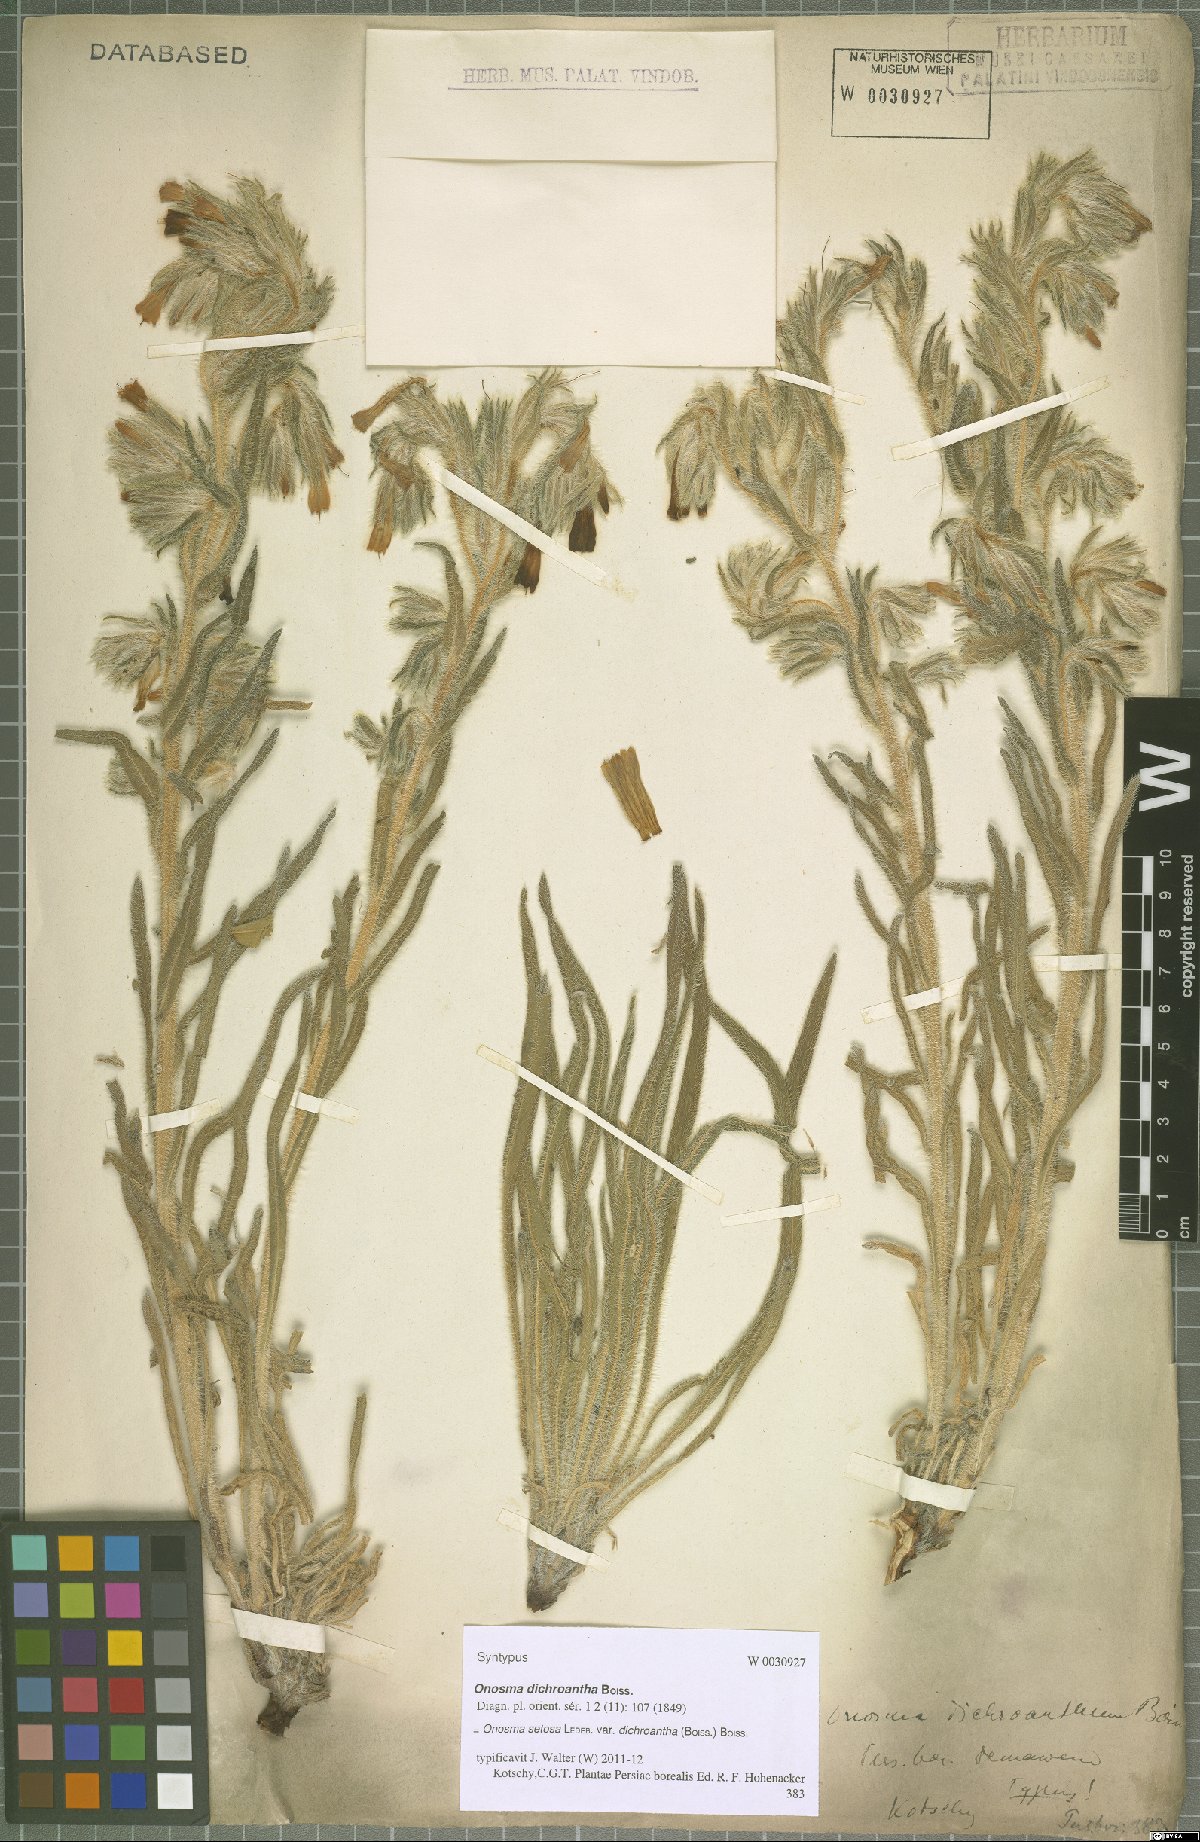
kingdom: Plantae
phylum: Tracheophyta
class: Magnoliopsida
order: Boraginales
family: Boraginaceae
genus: Onosma
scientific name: Onosma dichroantha
